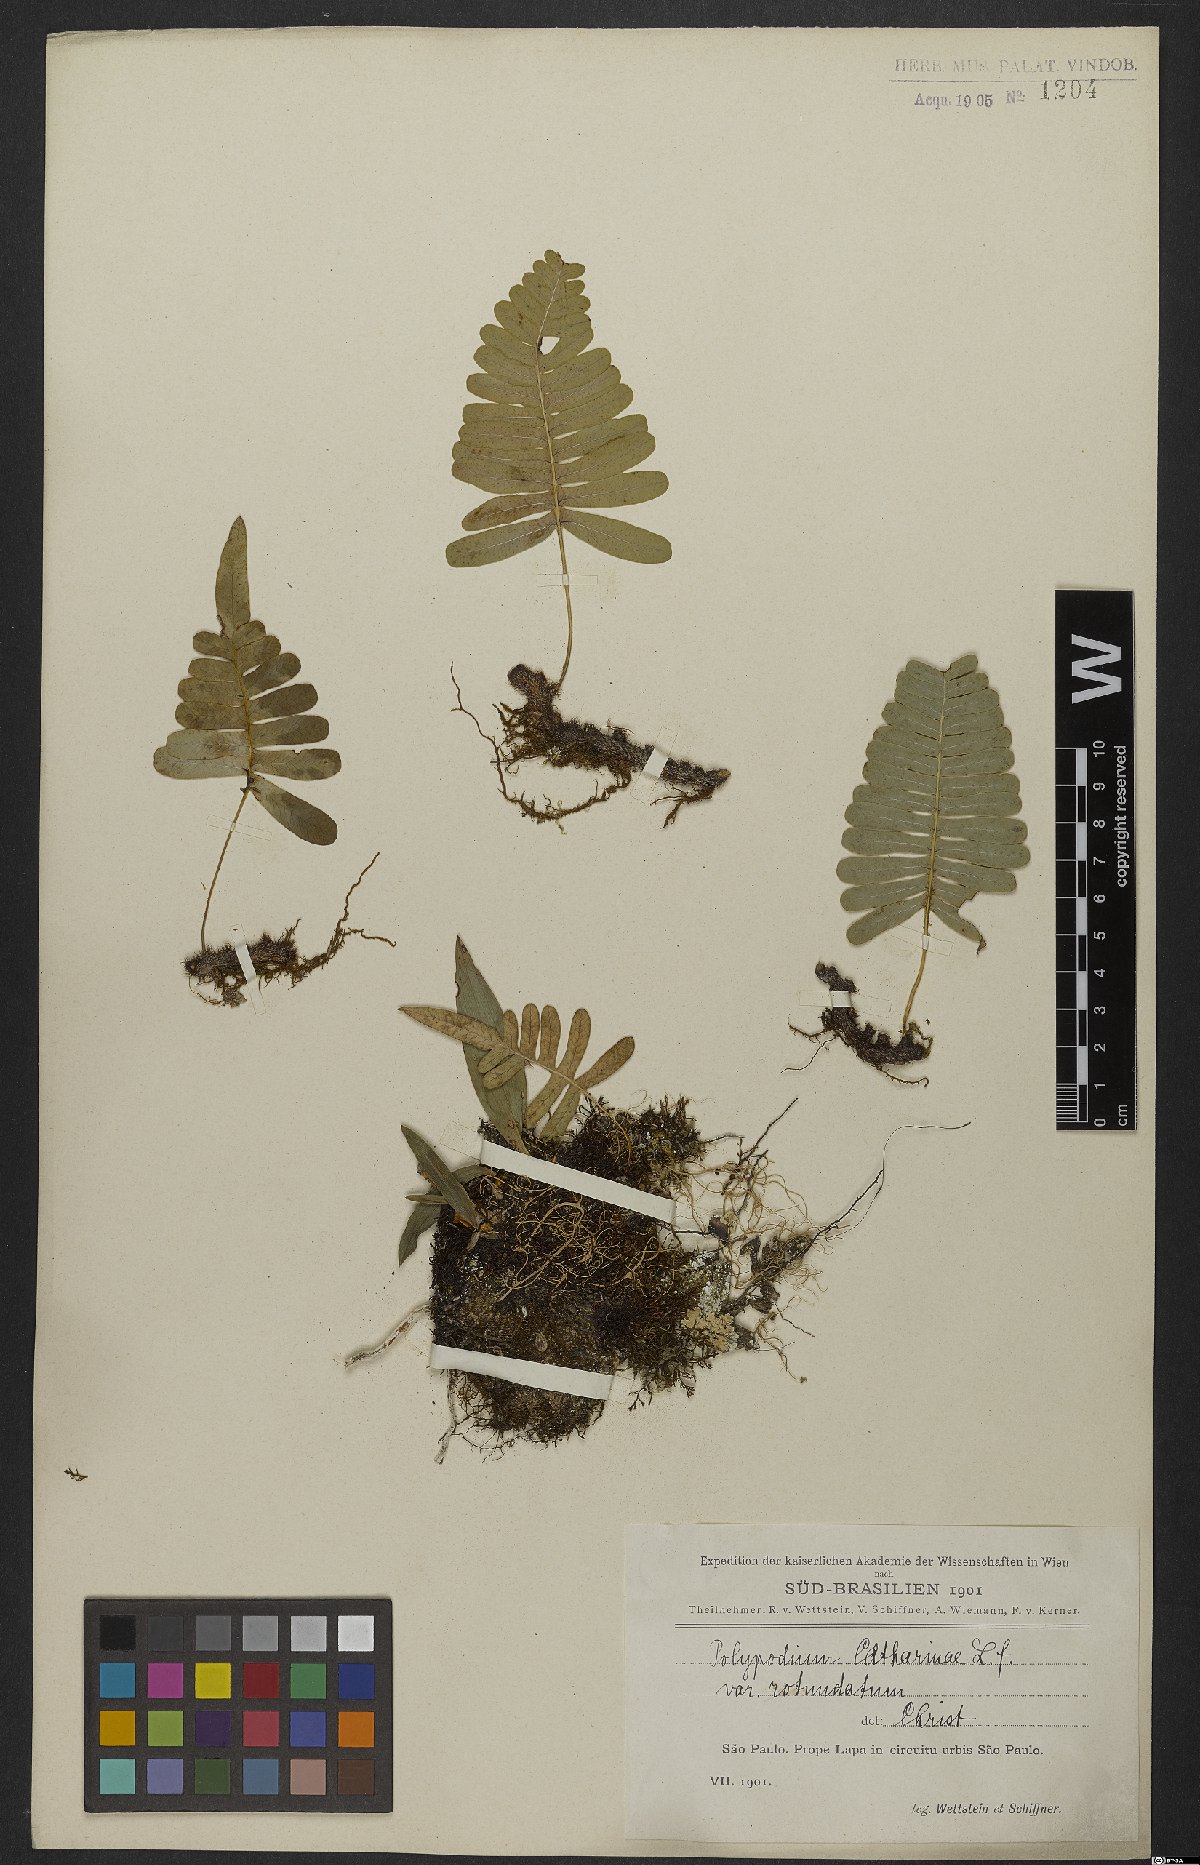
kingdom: Plantae
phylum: Tracheophyta
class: Polypodiopsida
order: Polypodiales
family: Polypodiaceae
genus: Serpocaulon
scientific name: Serpocaulon catharinae
